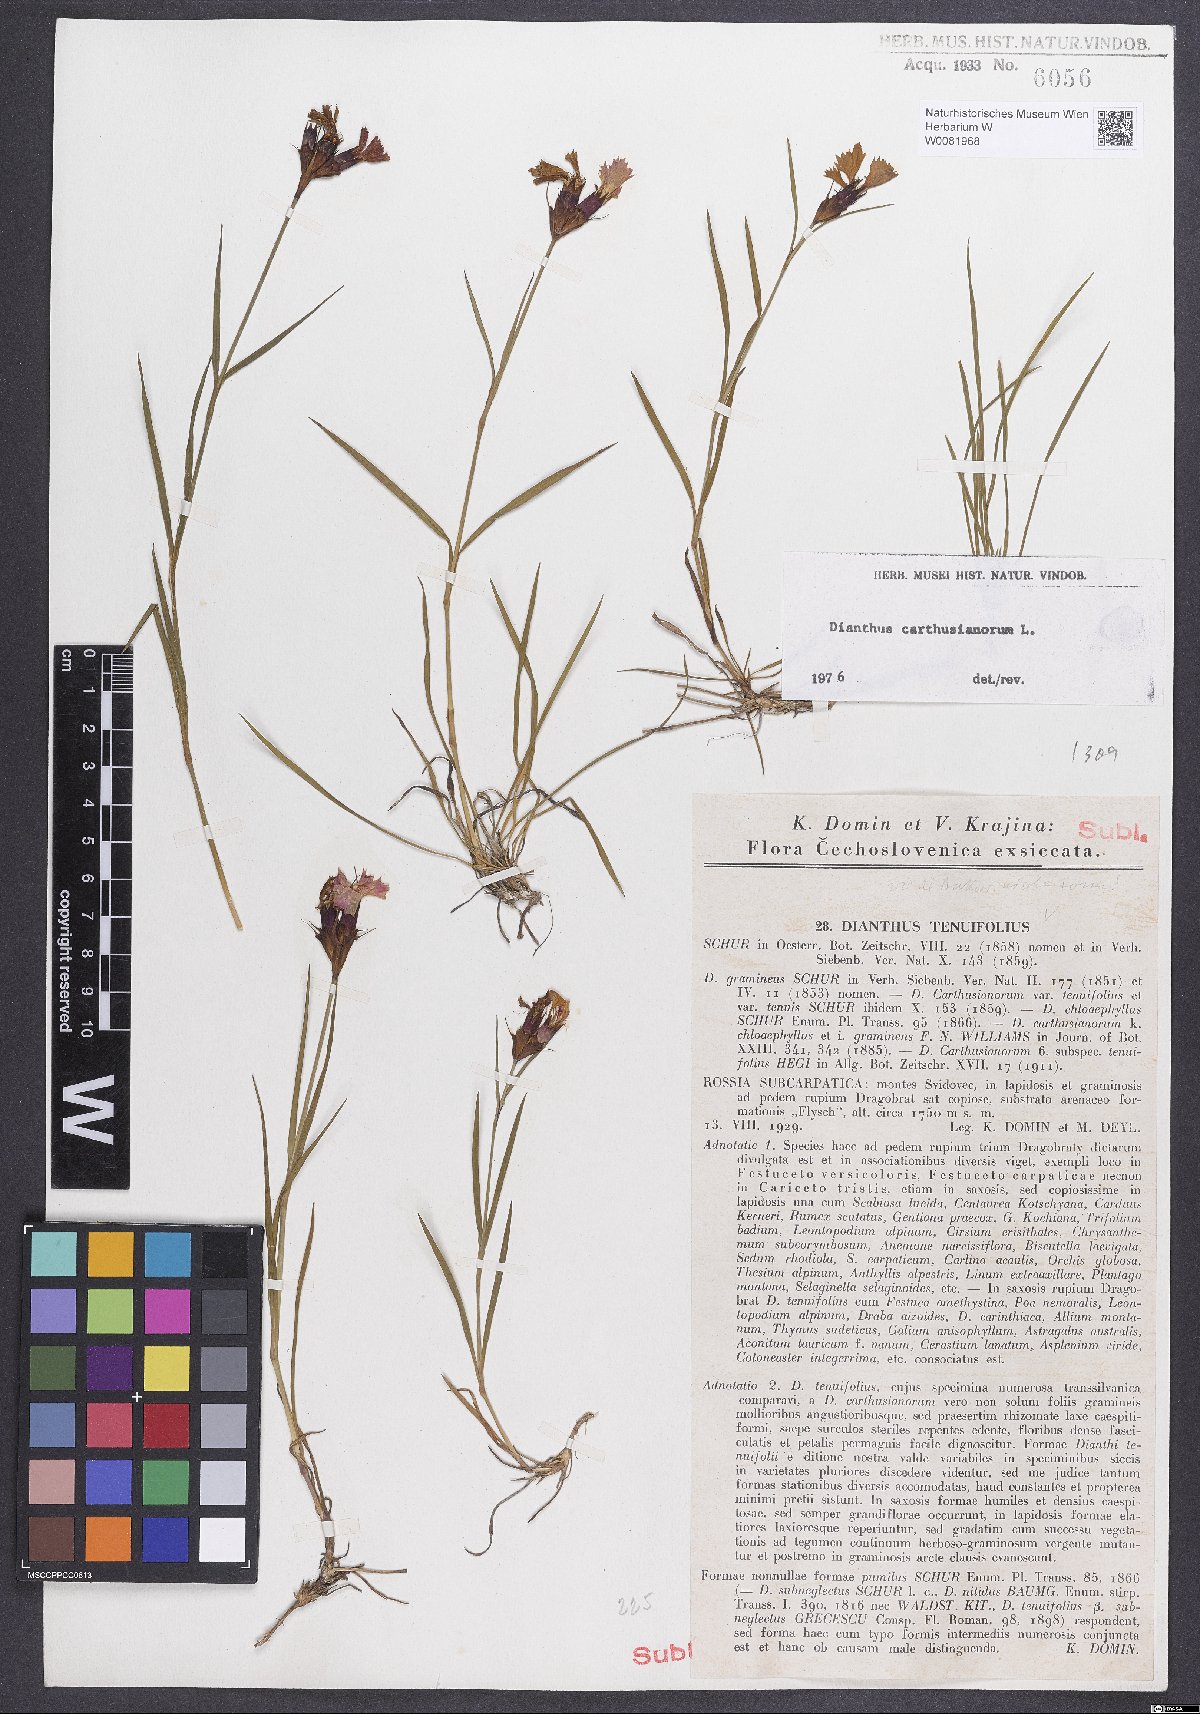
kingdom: Plantae
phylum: Tracheophyta
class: Magnoliopsida
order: Caryophyllales
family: Caryophyllaceae
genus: Dianthus
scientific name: Dianthus carthusianorum
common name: Carthusian pink
